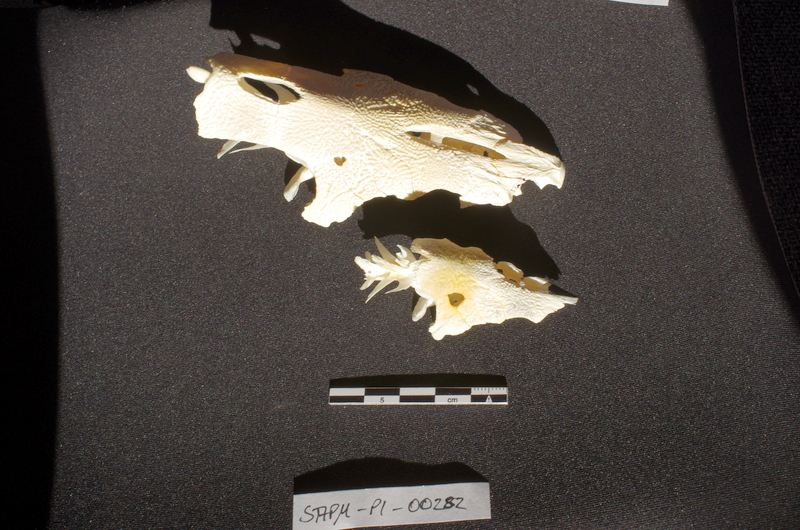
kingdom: Animalia
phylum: Chordata
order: Siluriformes
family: Mochokidae
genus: Synodontis
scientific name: Synodontis schall
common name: Wahrindi
